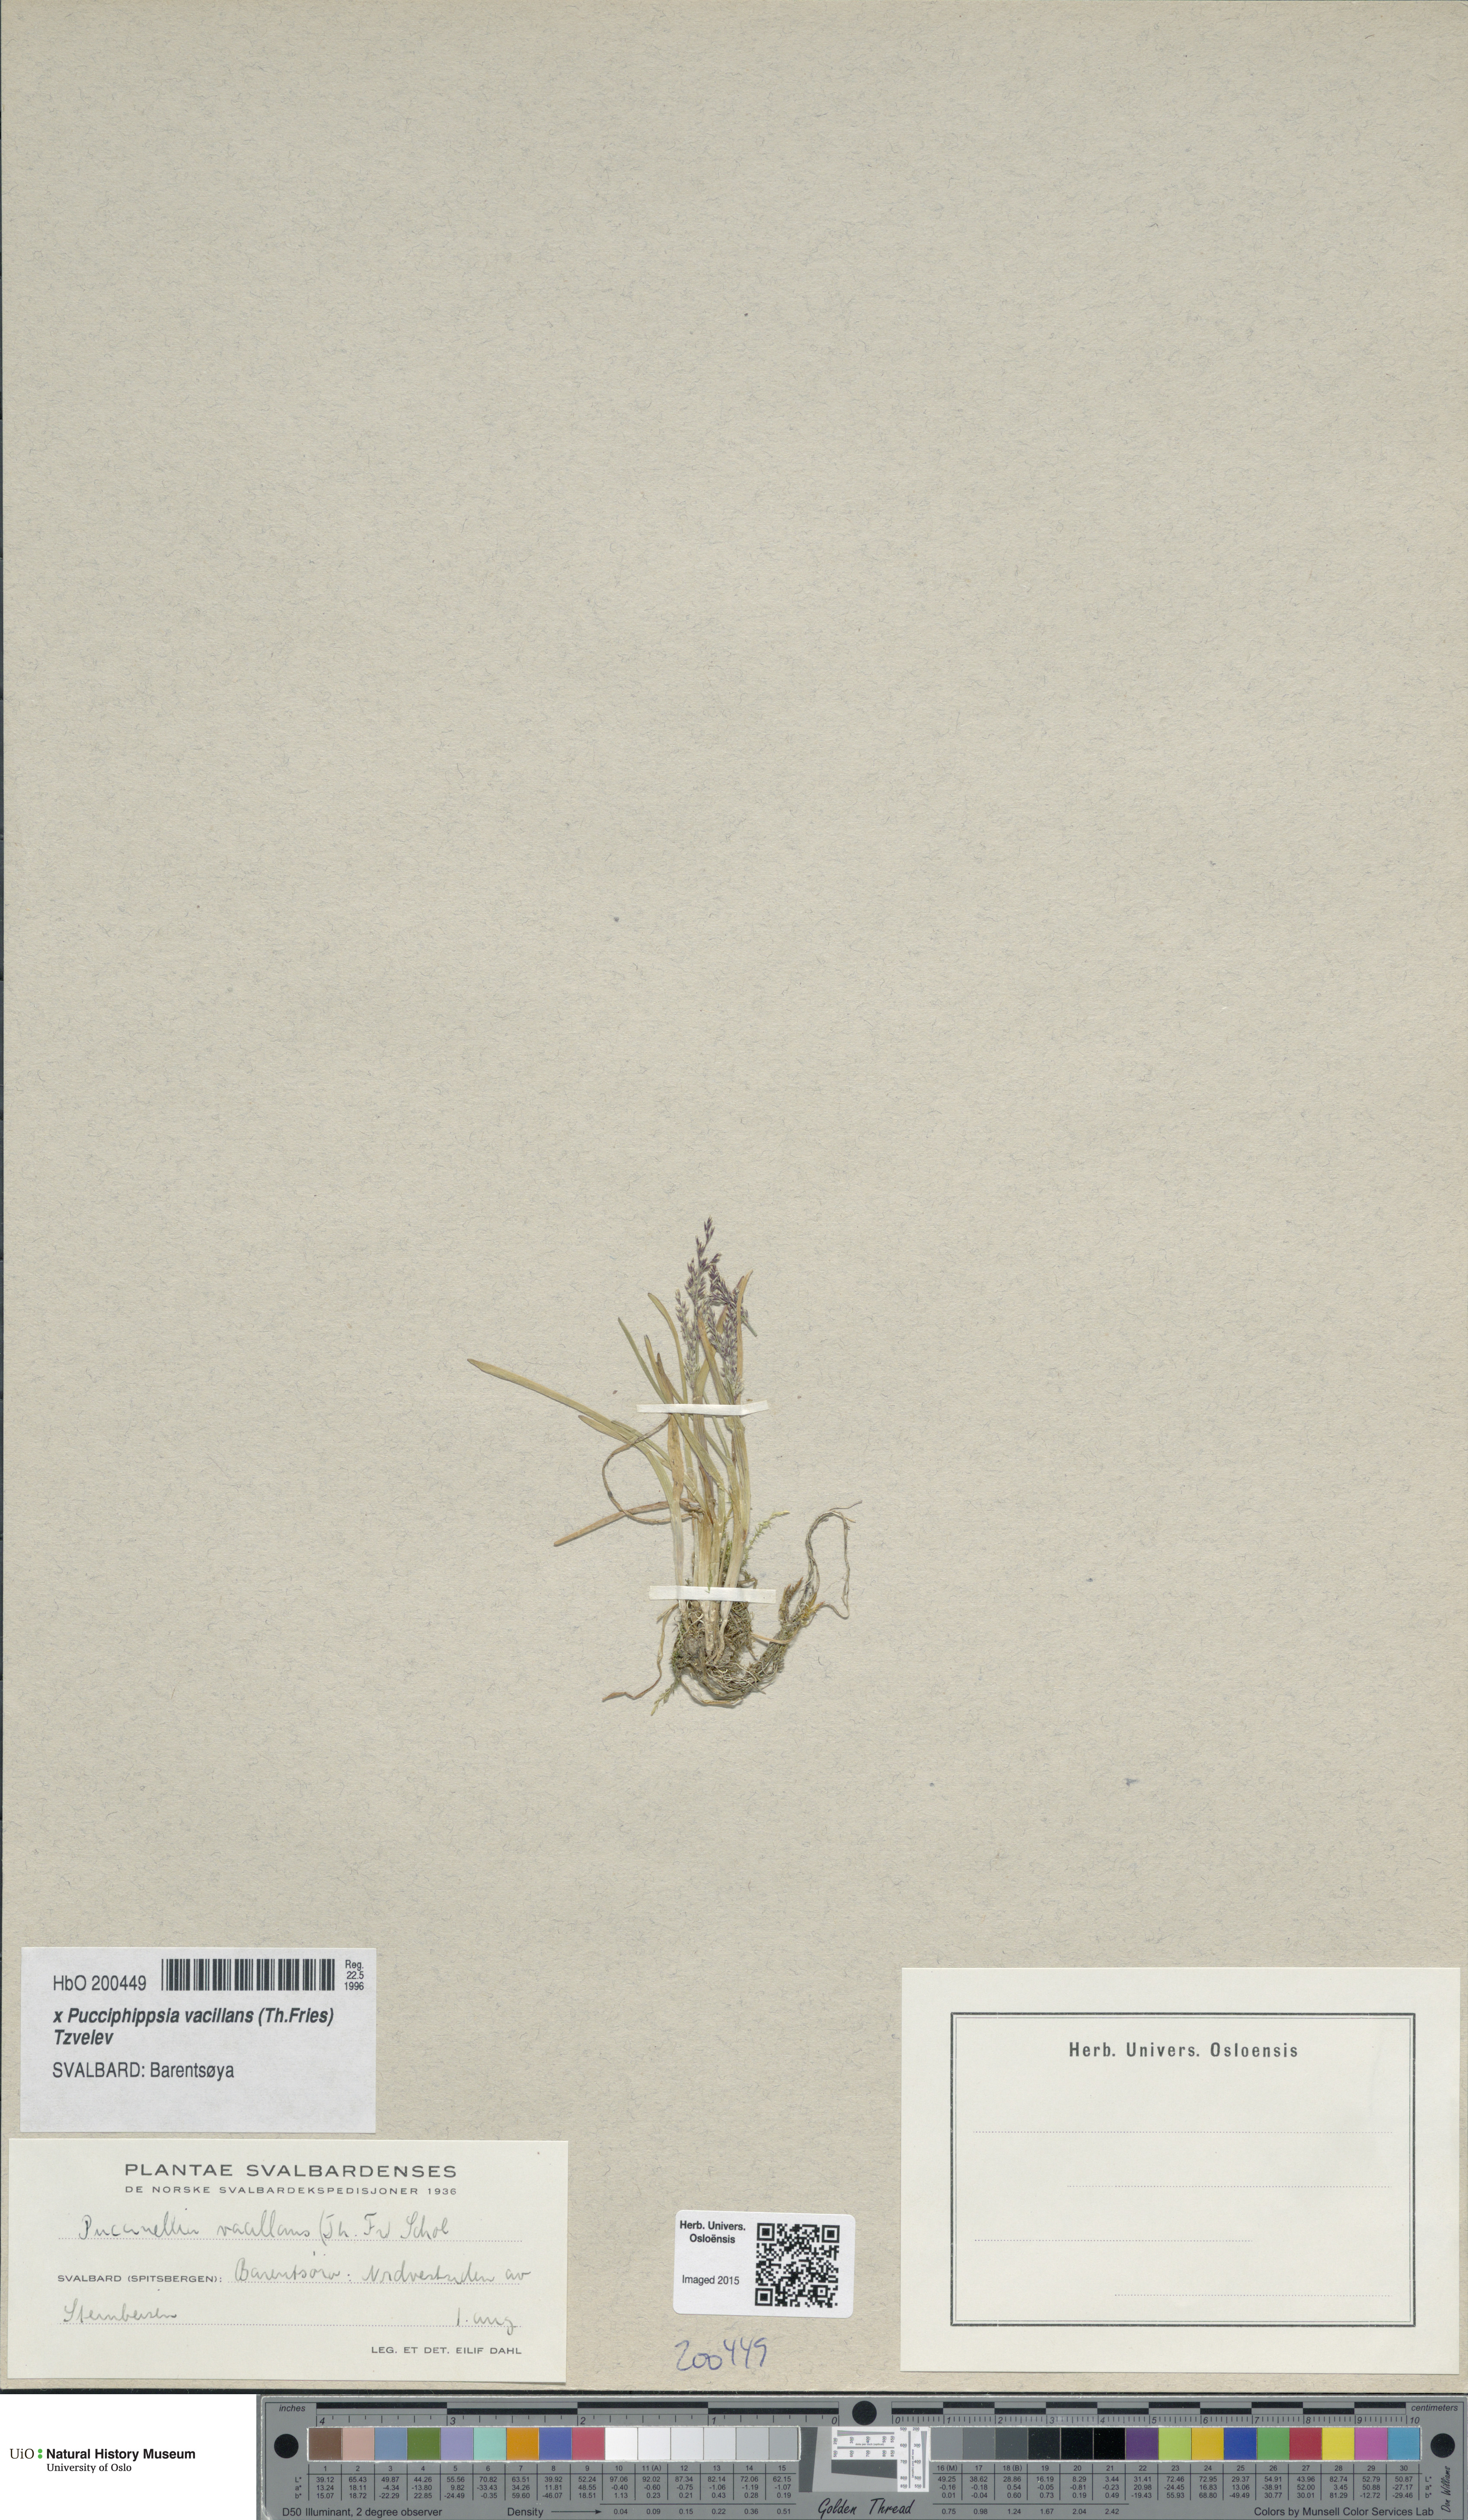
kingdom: Plantae
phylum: Tracheophyta
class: Liliopsida
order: Poales
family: Poaceae
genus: Pucciphippsia
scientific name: Pucciphippsia vacillans
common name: Svalbard grass
